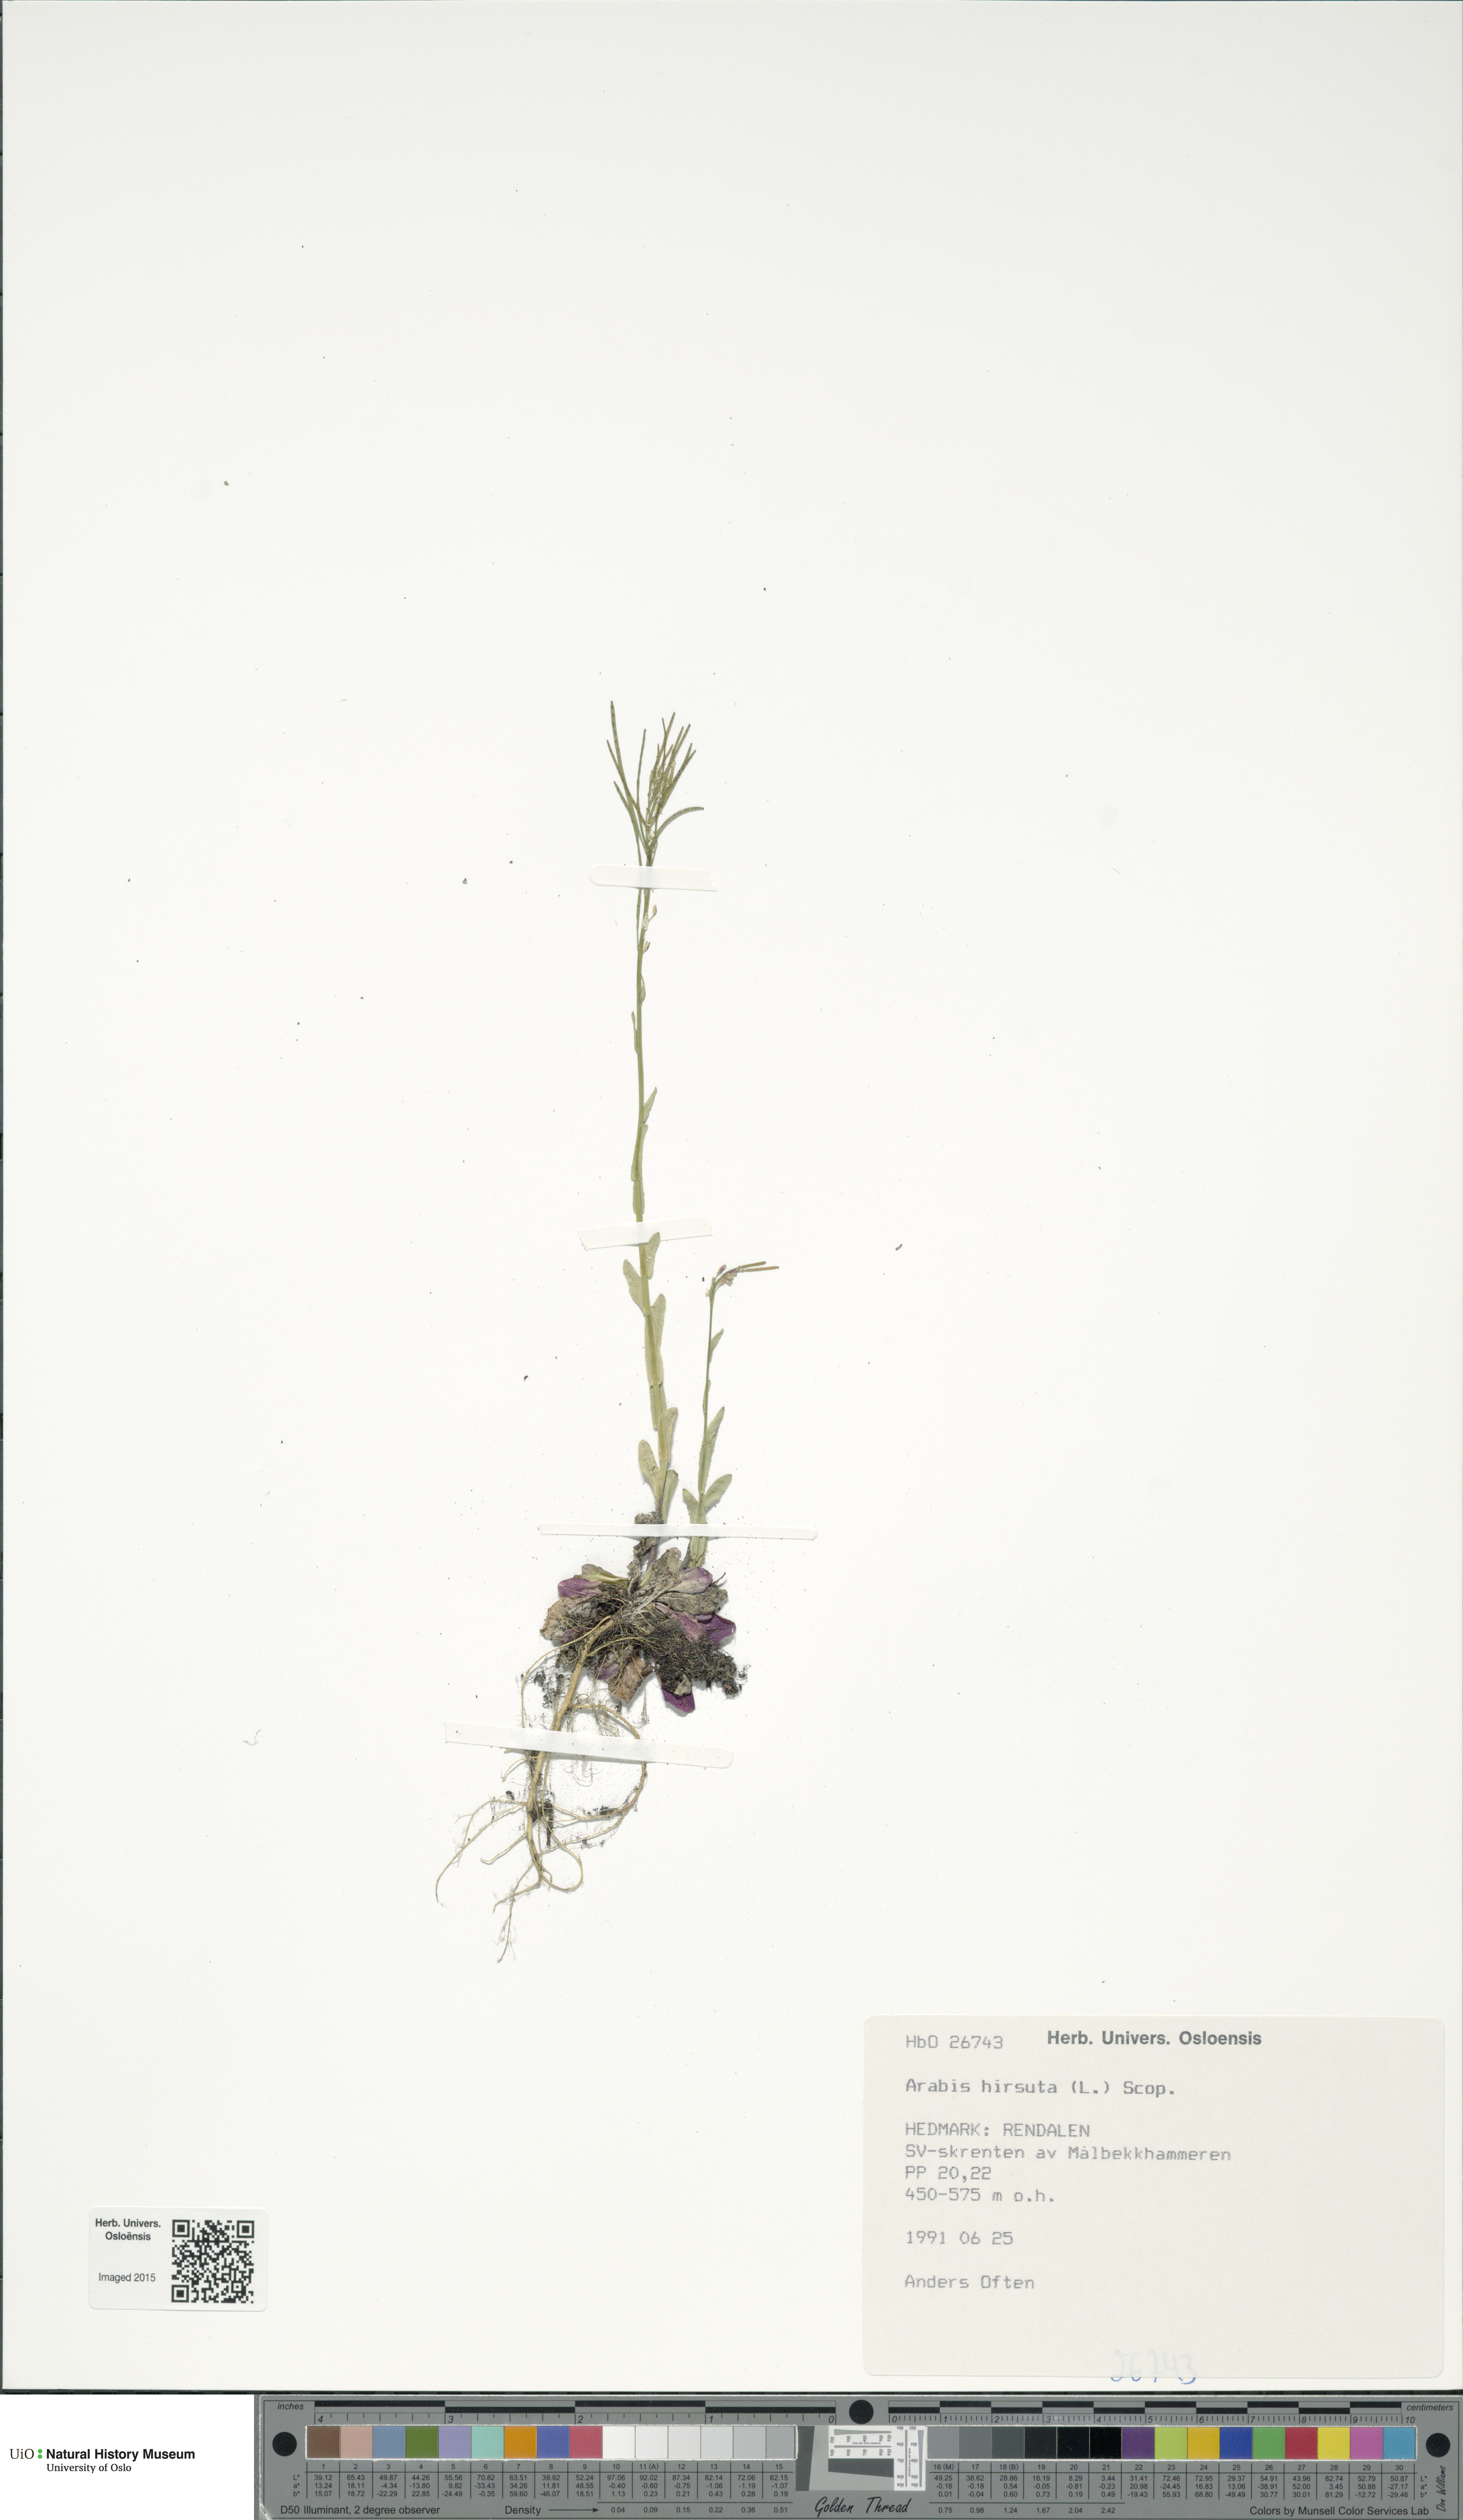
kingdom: Plantae
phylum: Tracheophyta
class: Magnoliopsida
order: Brassicales
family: Brassicaceae
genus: Arabis
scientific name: Arabis hirsuta
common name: Hairy rock-cress
